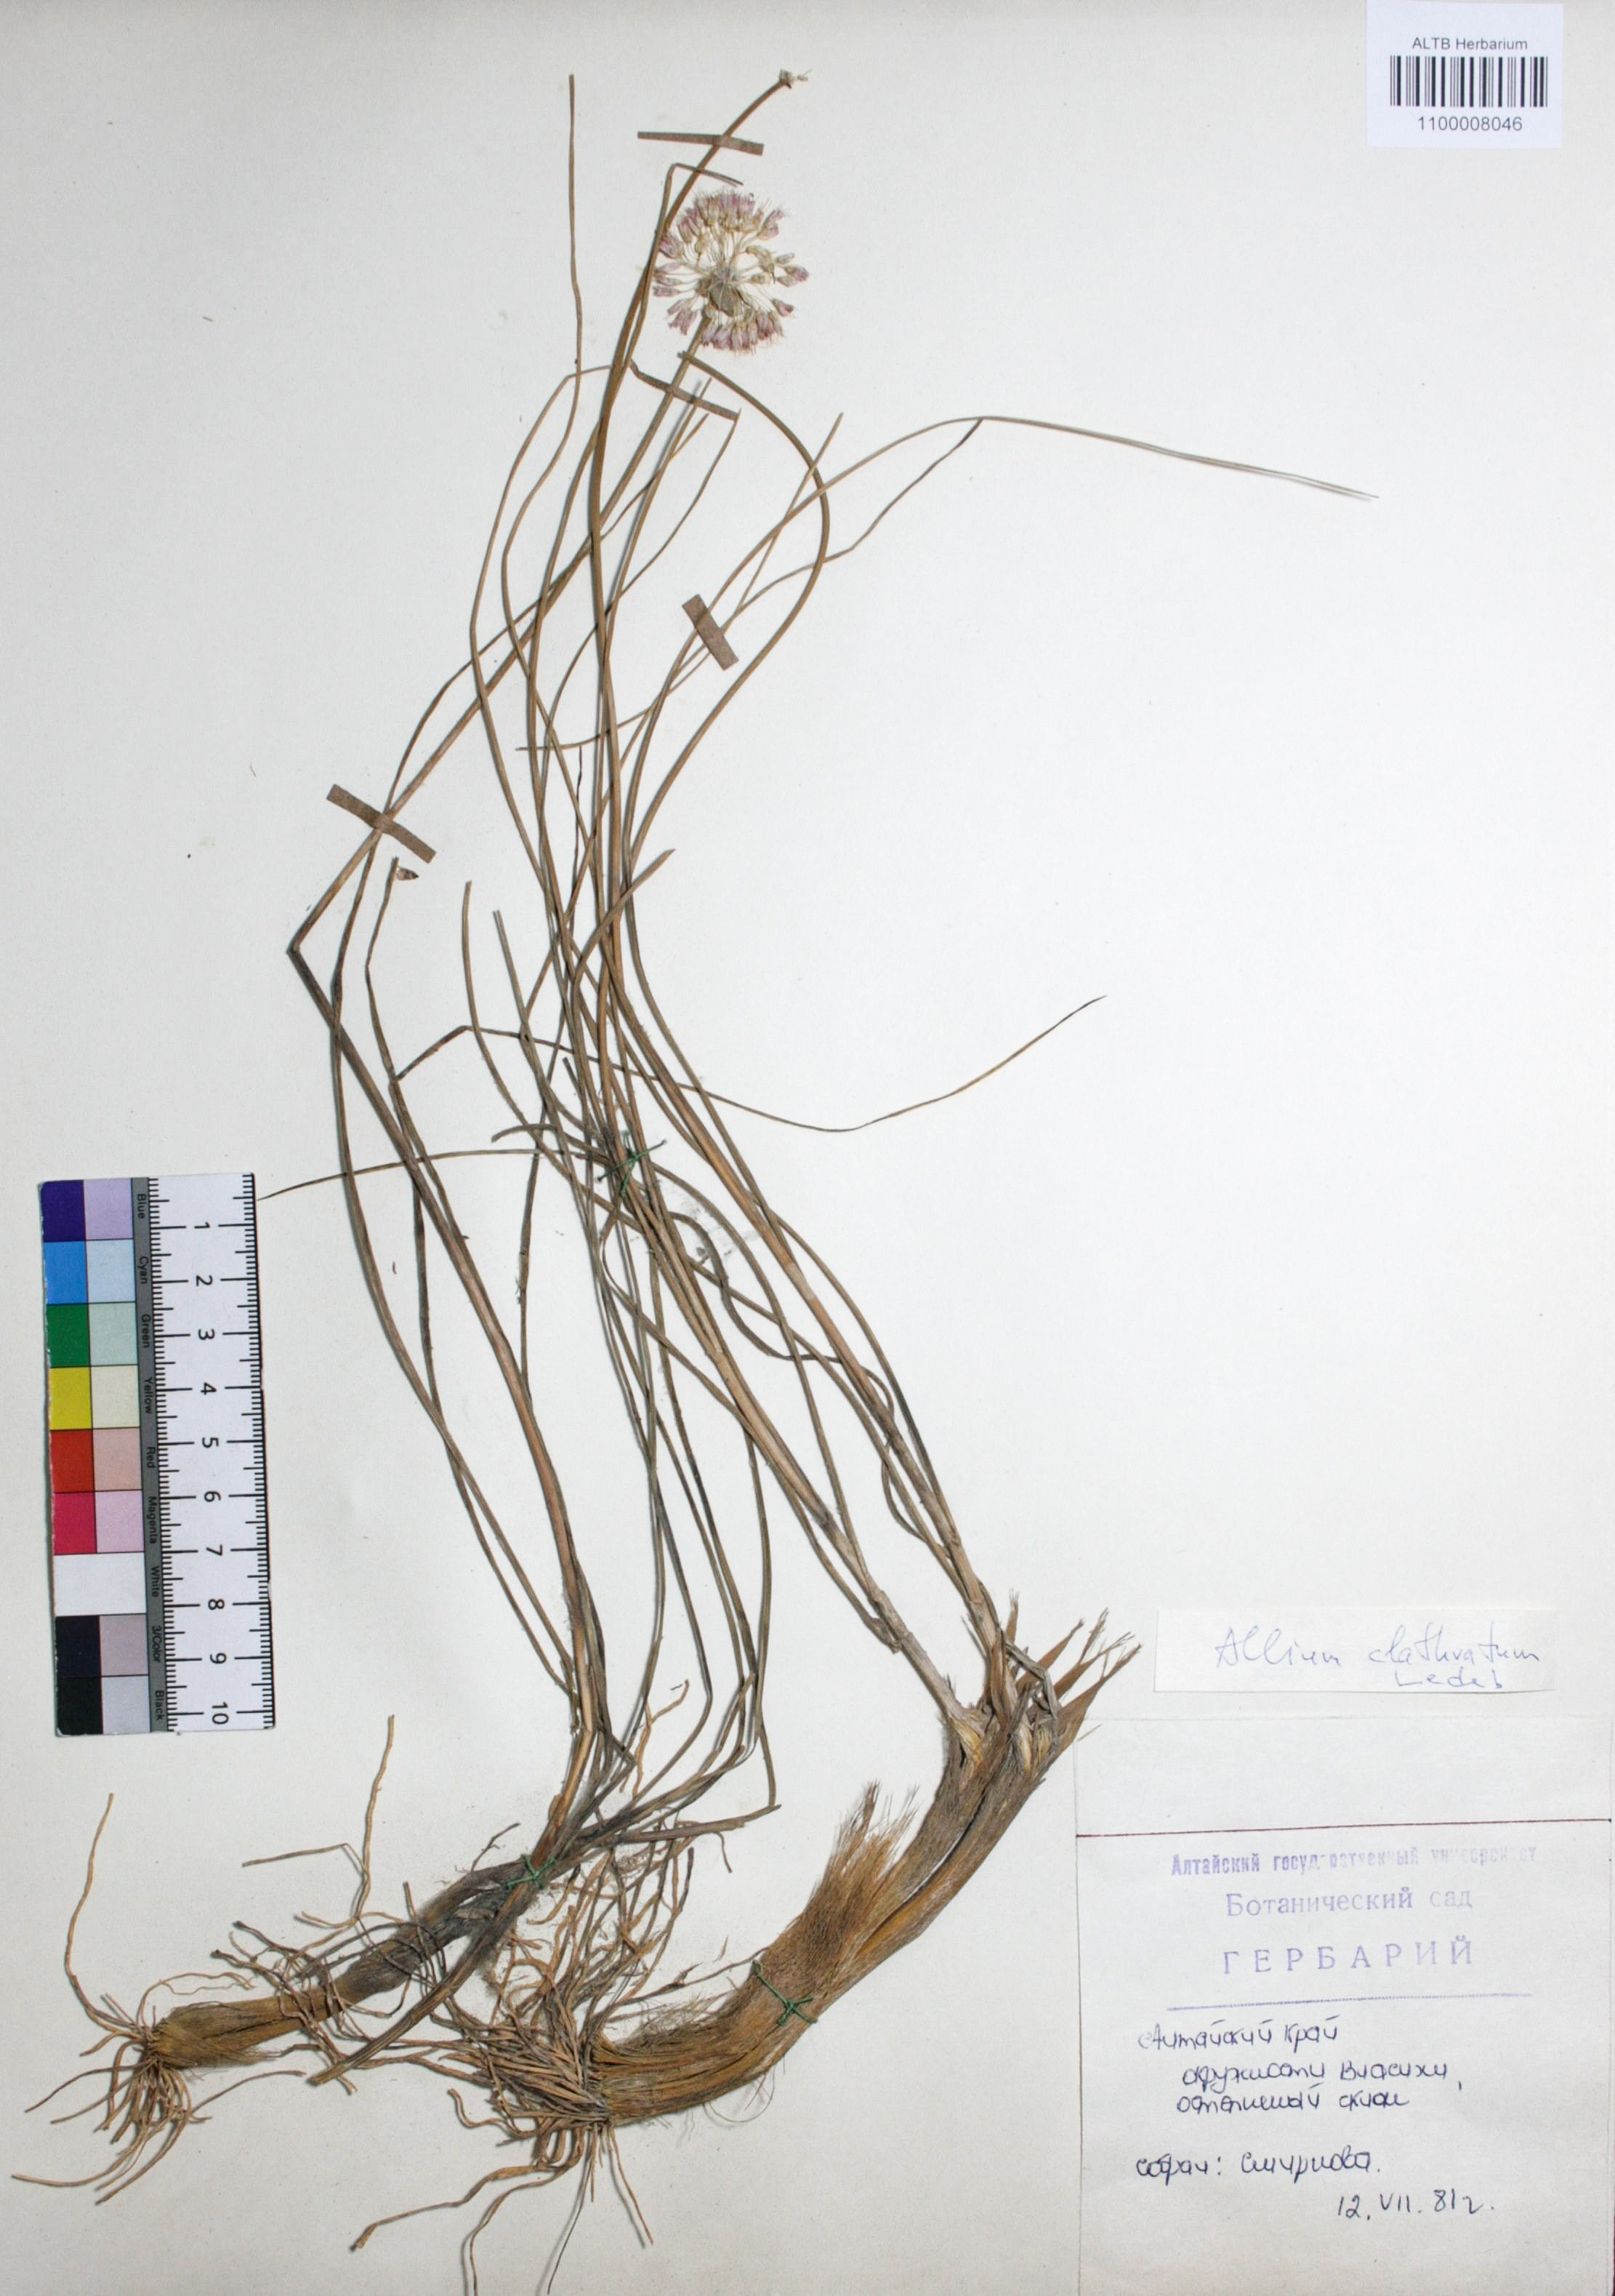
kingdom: Plantae
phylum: Tracheophyta
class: Liliopsida
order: Asparagales
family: Amaryllidaceae
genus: Allium
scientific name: Allium clathratum
